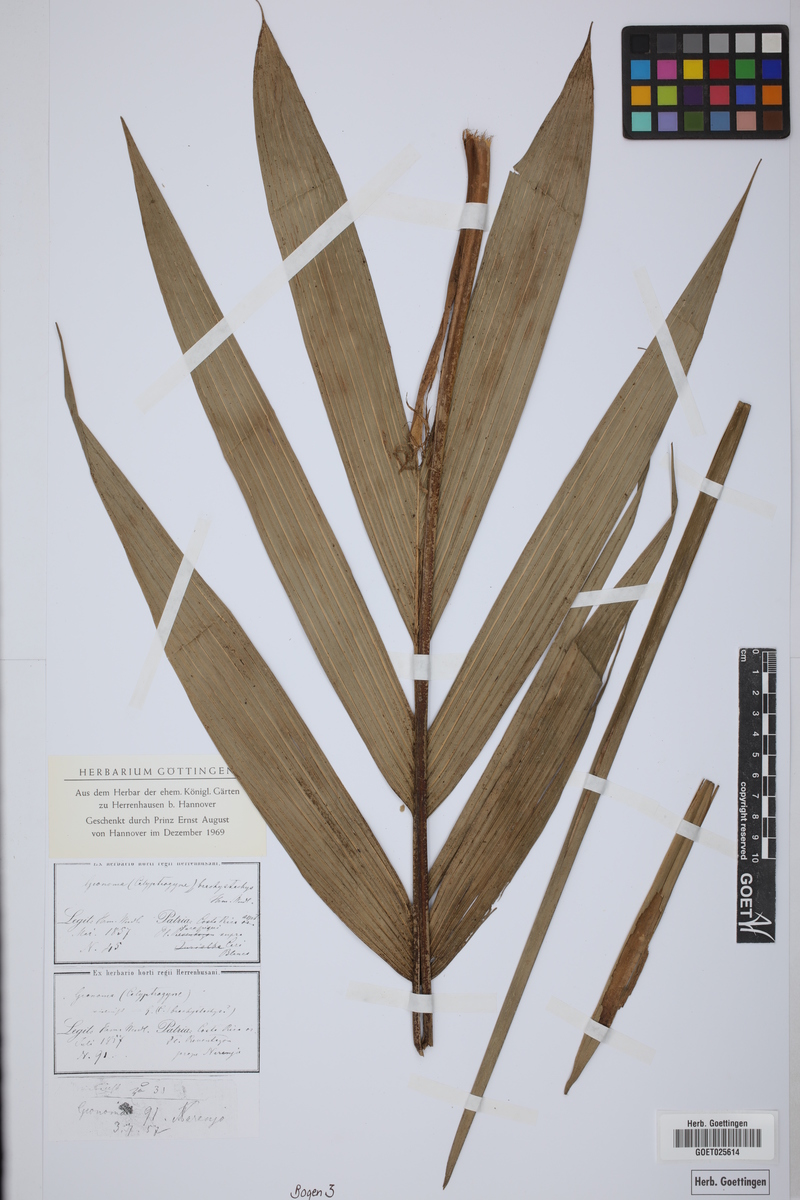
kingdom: Plantae
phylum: Tracheophyta
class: Liliopsida
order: Arecales
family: Arecaceae
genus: Geonoma
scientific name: Geonoma
